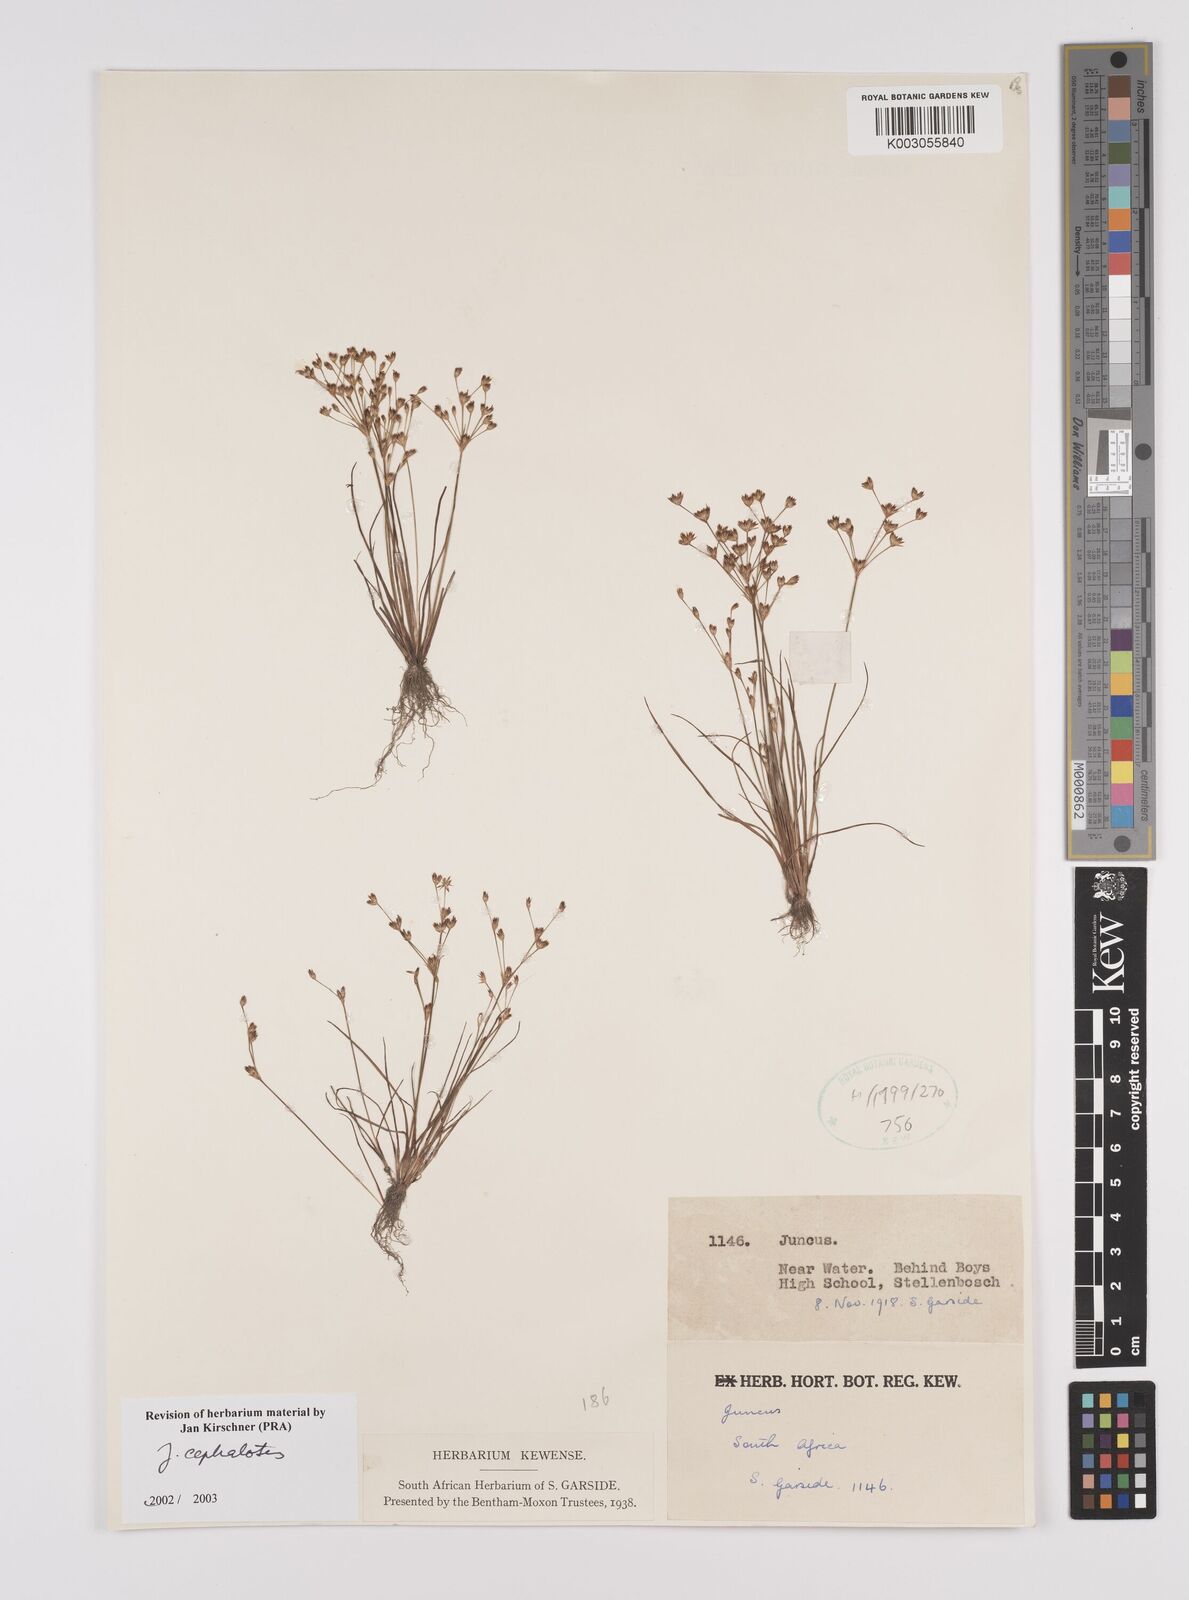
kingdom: Plantae
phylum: Tracheophyta
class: Liliopsida
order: Poales
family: Juncaceae
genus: Juncus
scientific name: Juncus cephalotes
